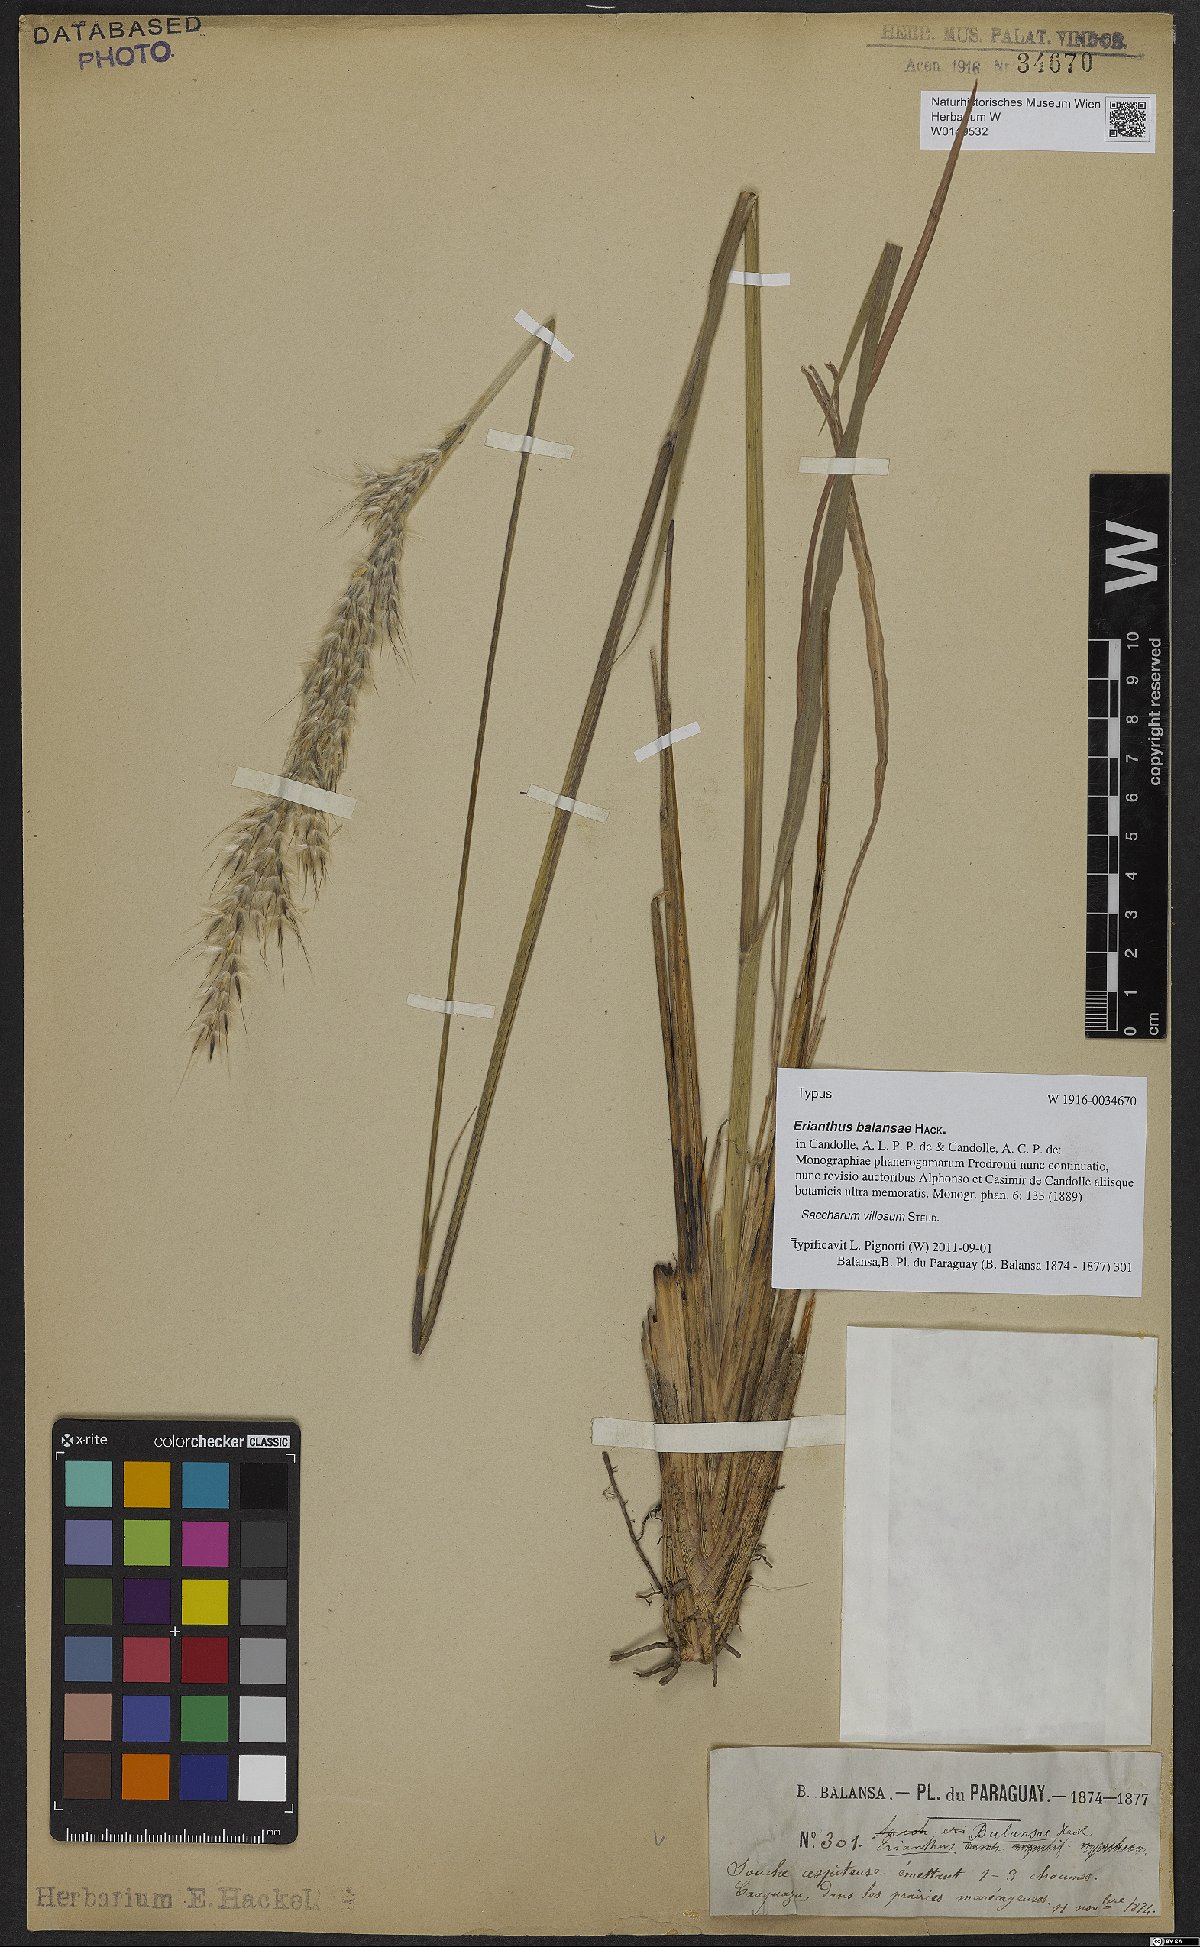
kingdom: Plantae
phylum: Tracheophyta
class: Liliopsida
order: Poales
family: Poaceae
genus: Erianthus
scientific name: Erianthus trinii
